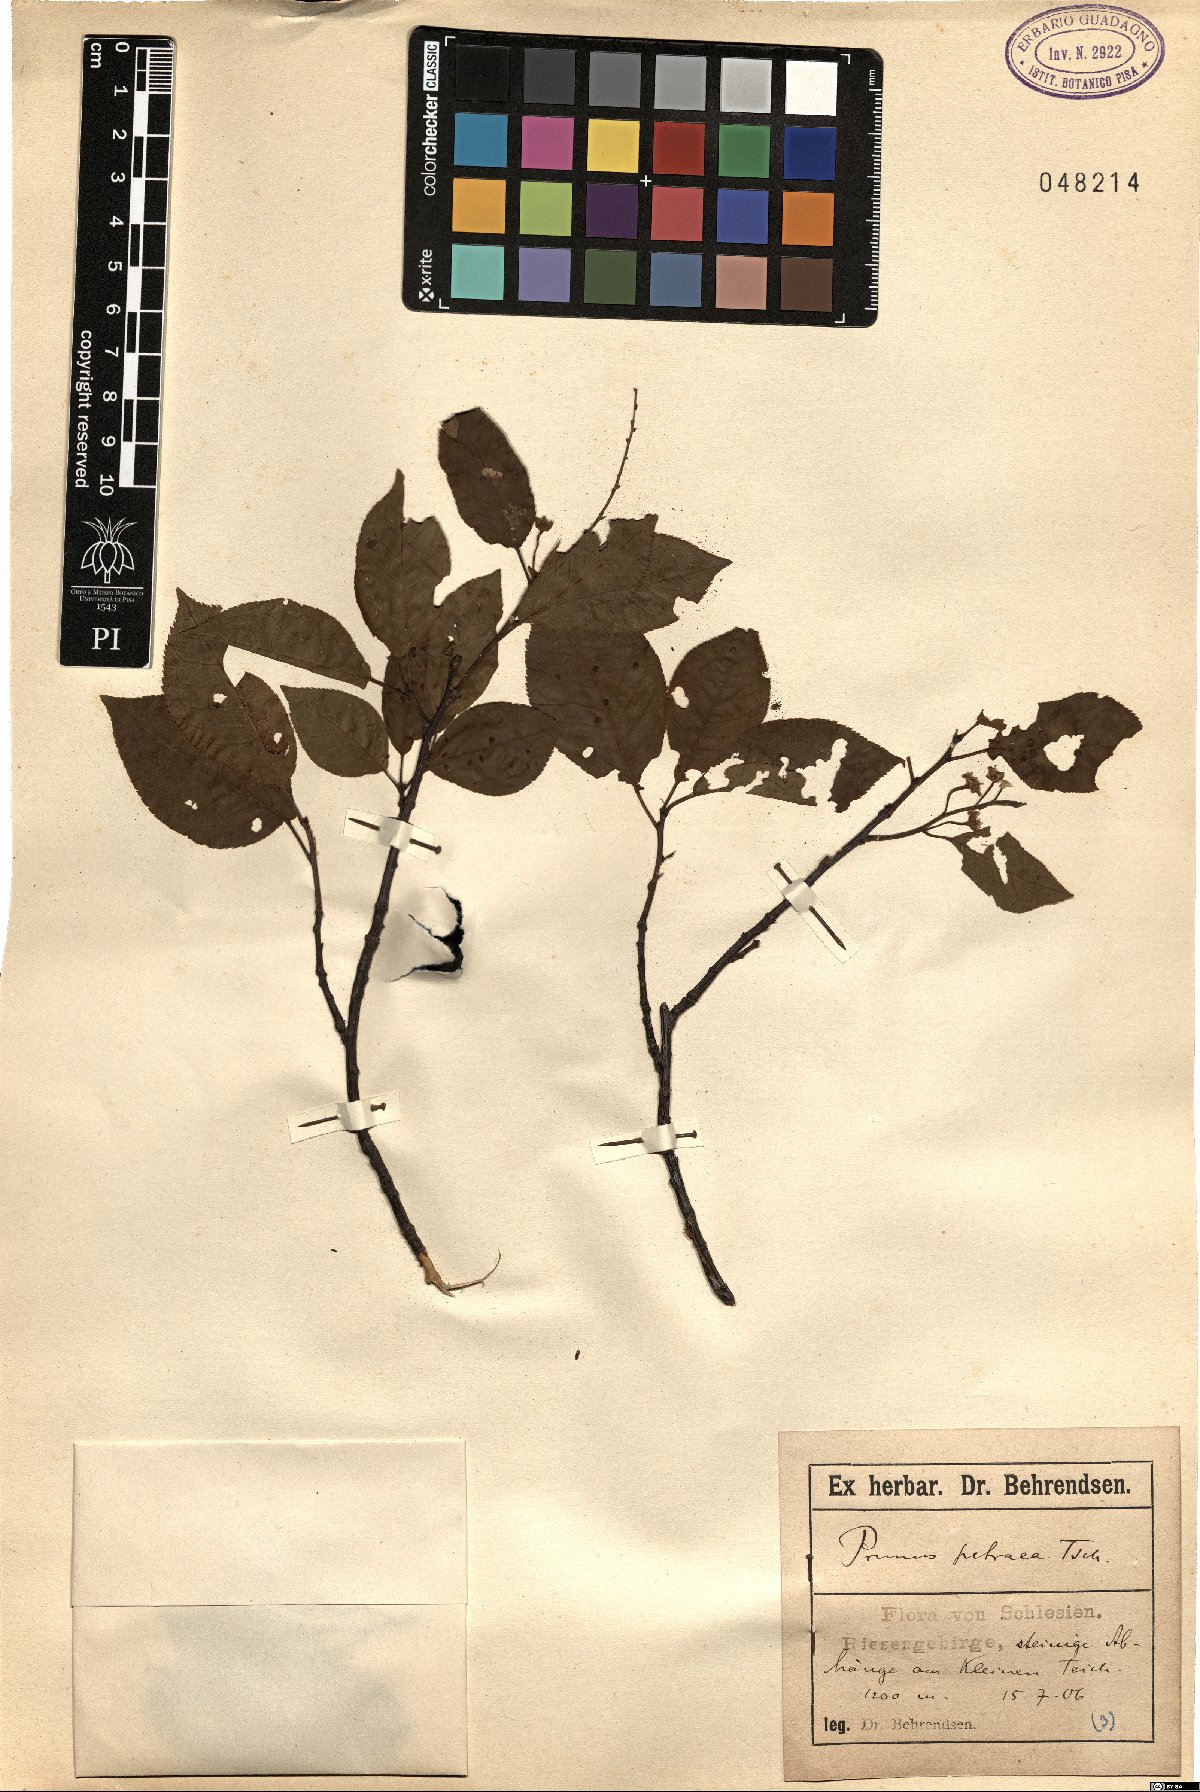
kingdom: Plantae
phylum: Tracheophyta
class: Magnoliopsida
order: Rosales
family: Rosaceae
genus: Prunus
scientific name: Prunus padus
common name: Bird cherry
